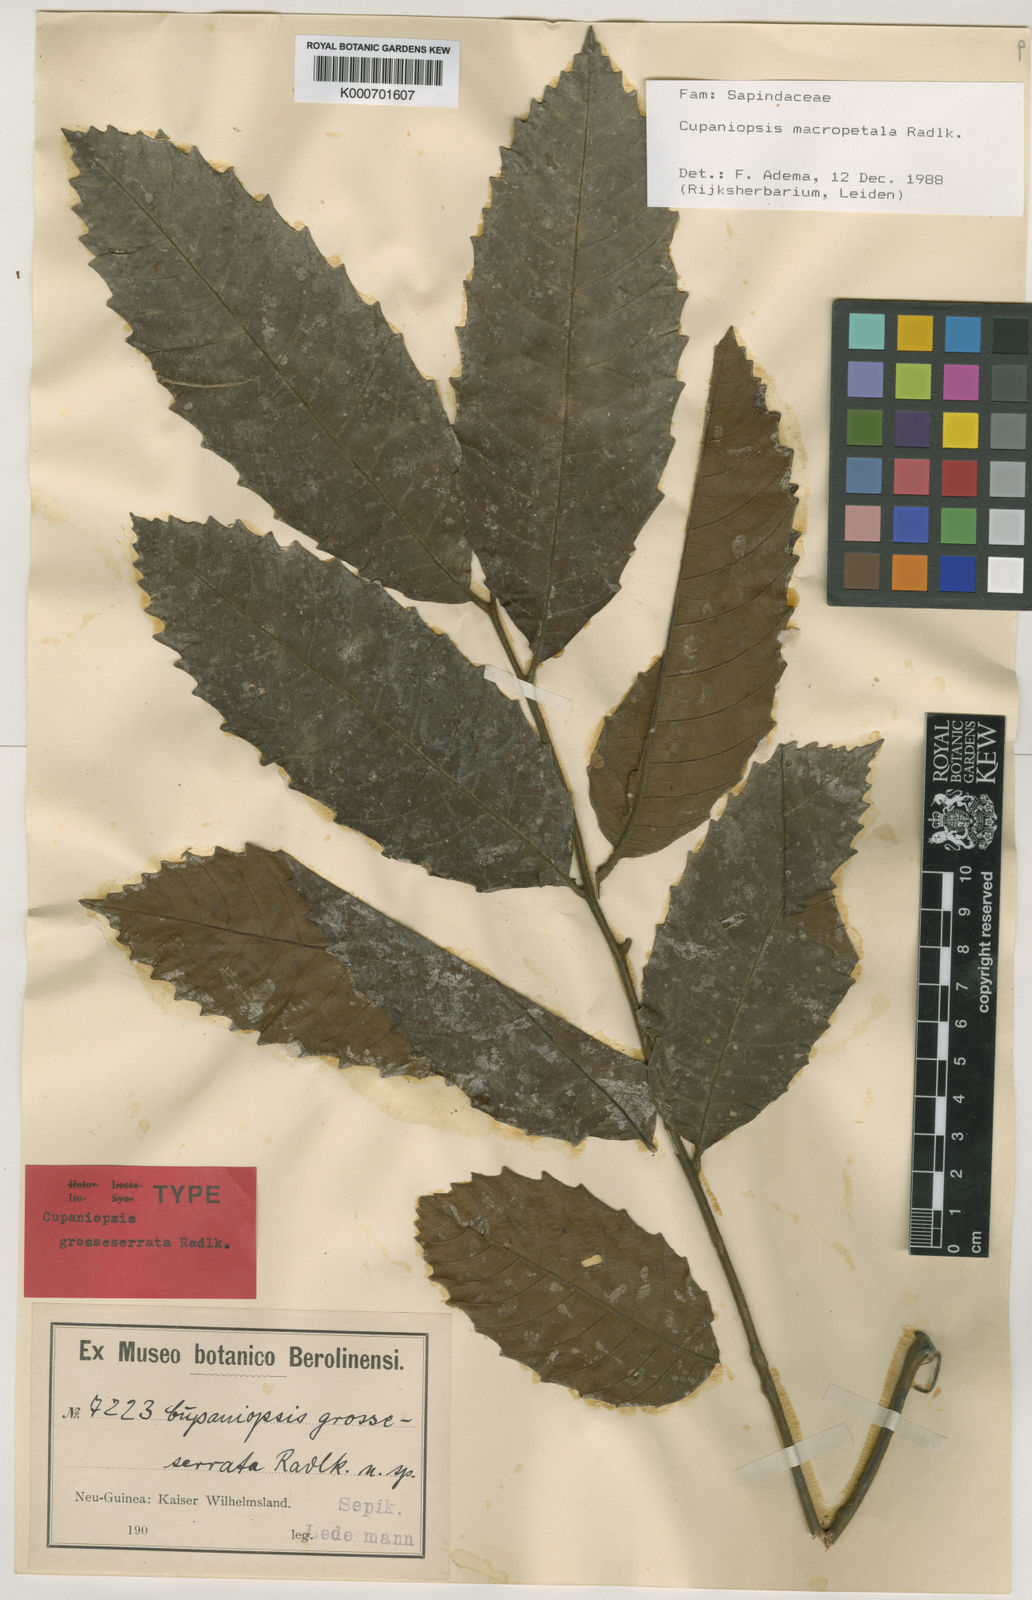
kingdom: Plantae
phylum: Tracheophyta
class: Magnoliopsida
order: Sapindales
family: Sapindaceae
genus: Cupaniopsis
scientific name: Cupaniopsis macropetala
